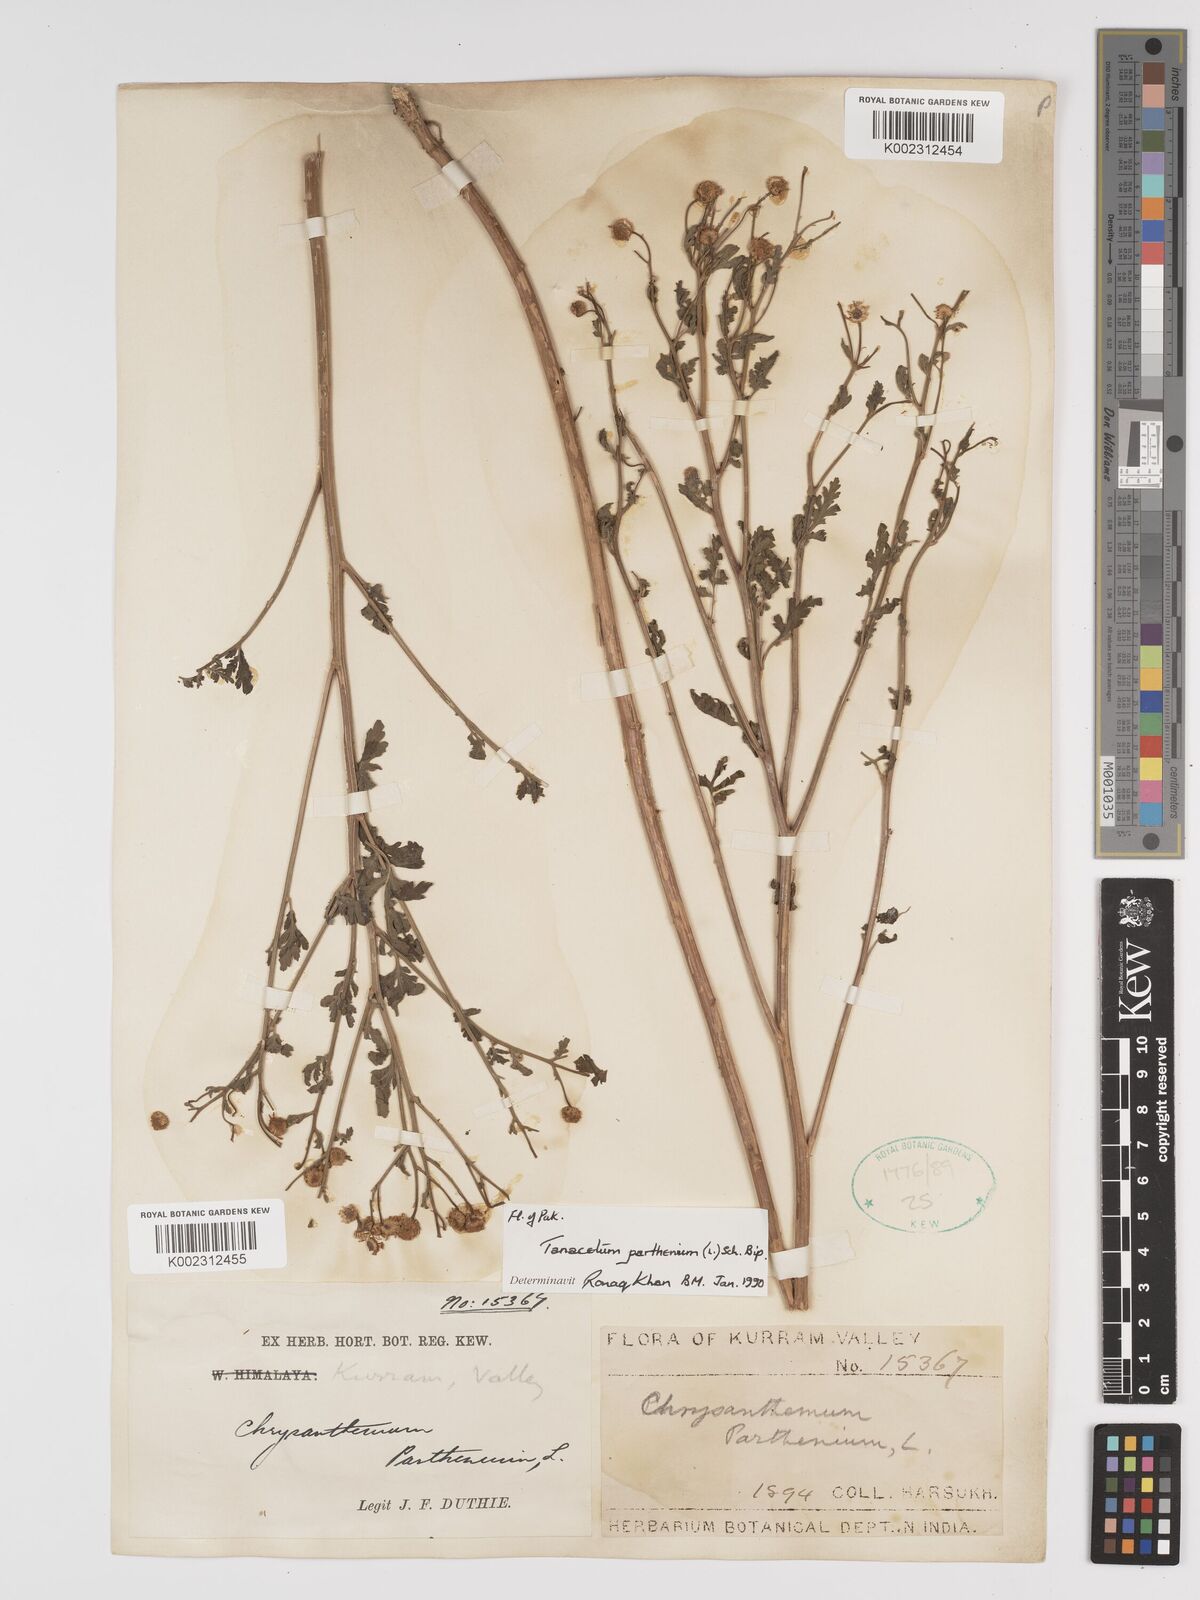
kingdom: Plantae
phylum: Tracheophyta
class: Magnoliopsida
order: Asterales
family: Asteraceae
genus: Tanacetum
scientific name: Tanacetum parthenium
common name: Feverfew
